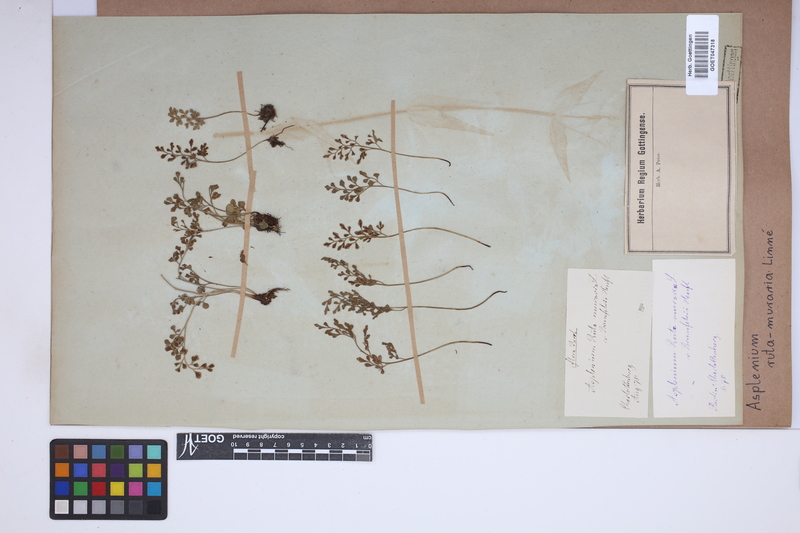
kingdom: Plantae
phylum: Tracheophyta
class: Polypodiopsida
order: Polypodiales
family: Aspleniaceae
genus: Asplenium
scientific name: Asplenium ruta-muraria
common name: Wall-rue
